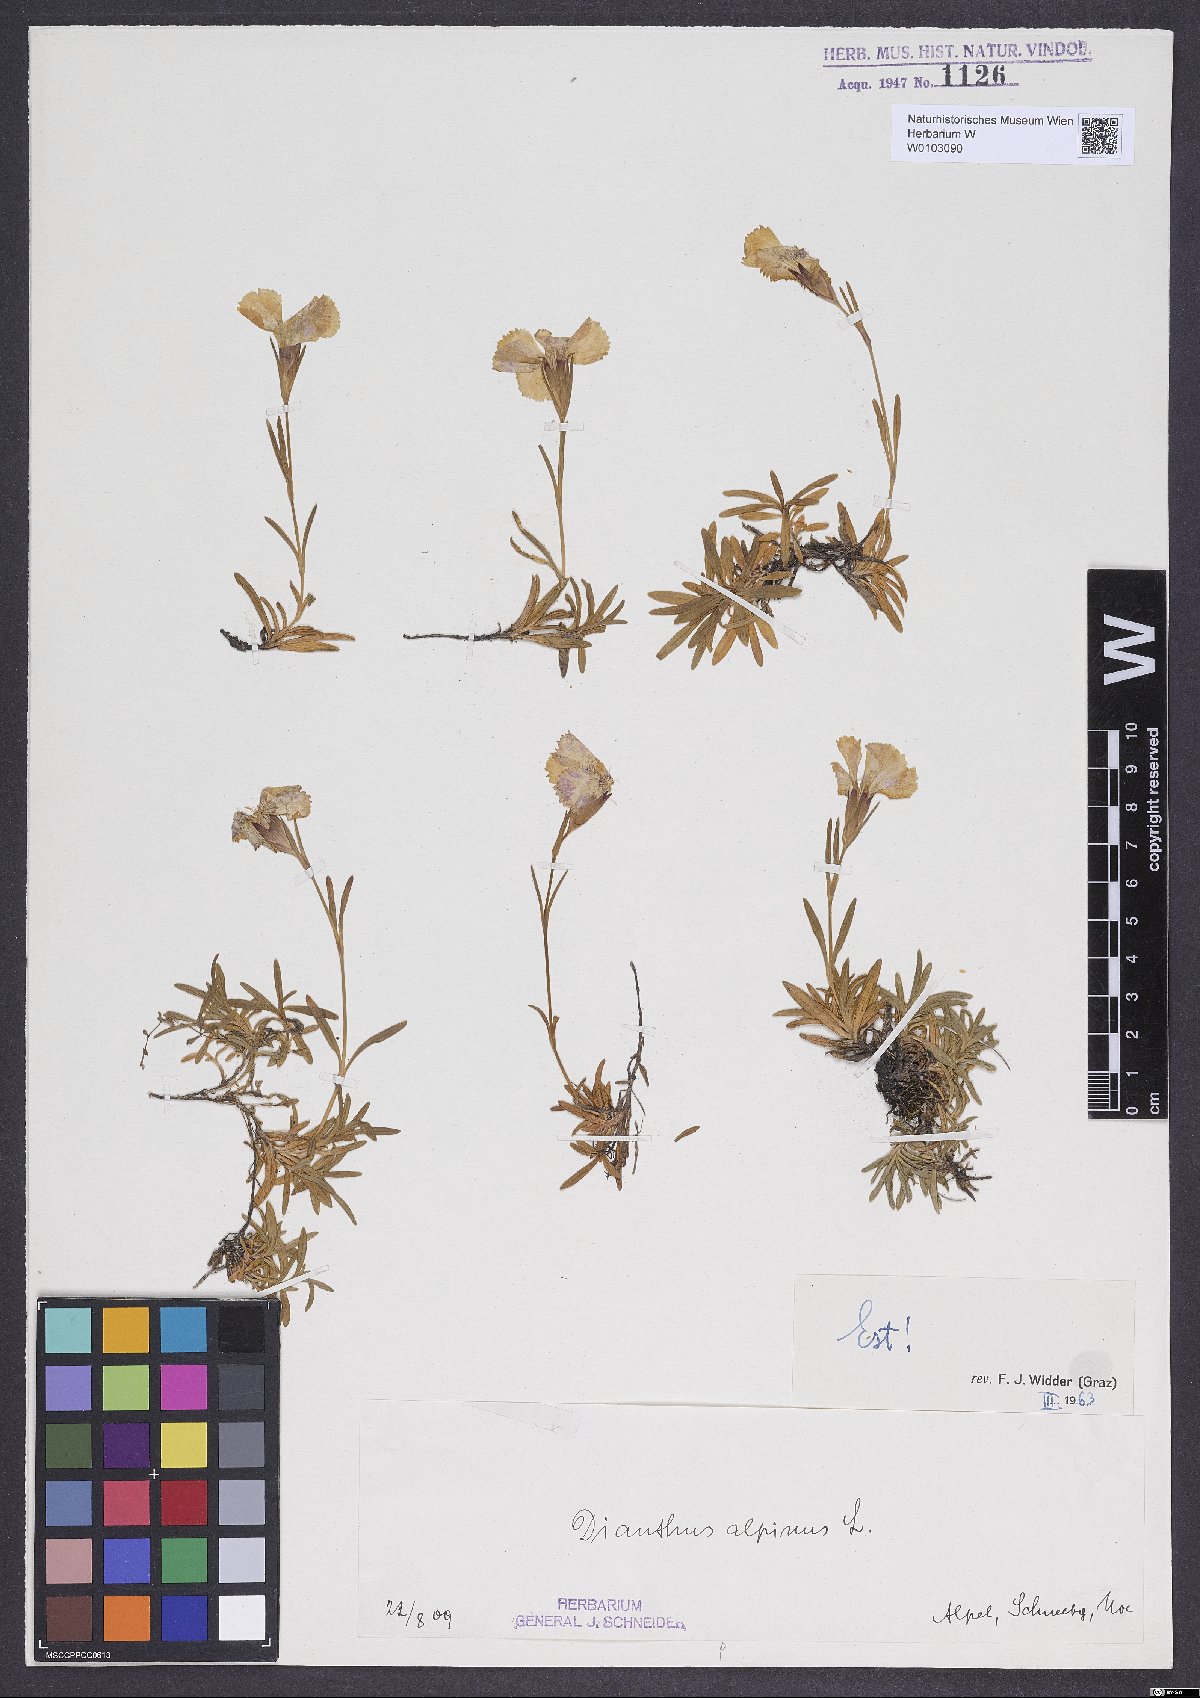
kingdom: Plantae
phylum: Tracheophyta
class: Magnoliopsida
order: Caryophyllales
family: Caryophyllaceae
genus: Dianthus
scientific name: Dianthus alpinus
